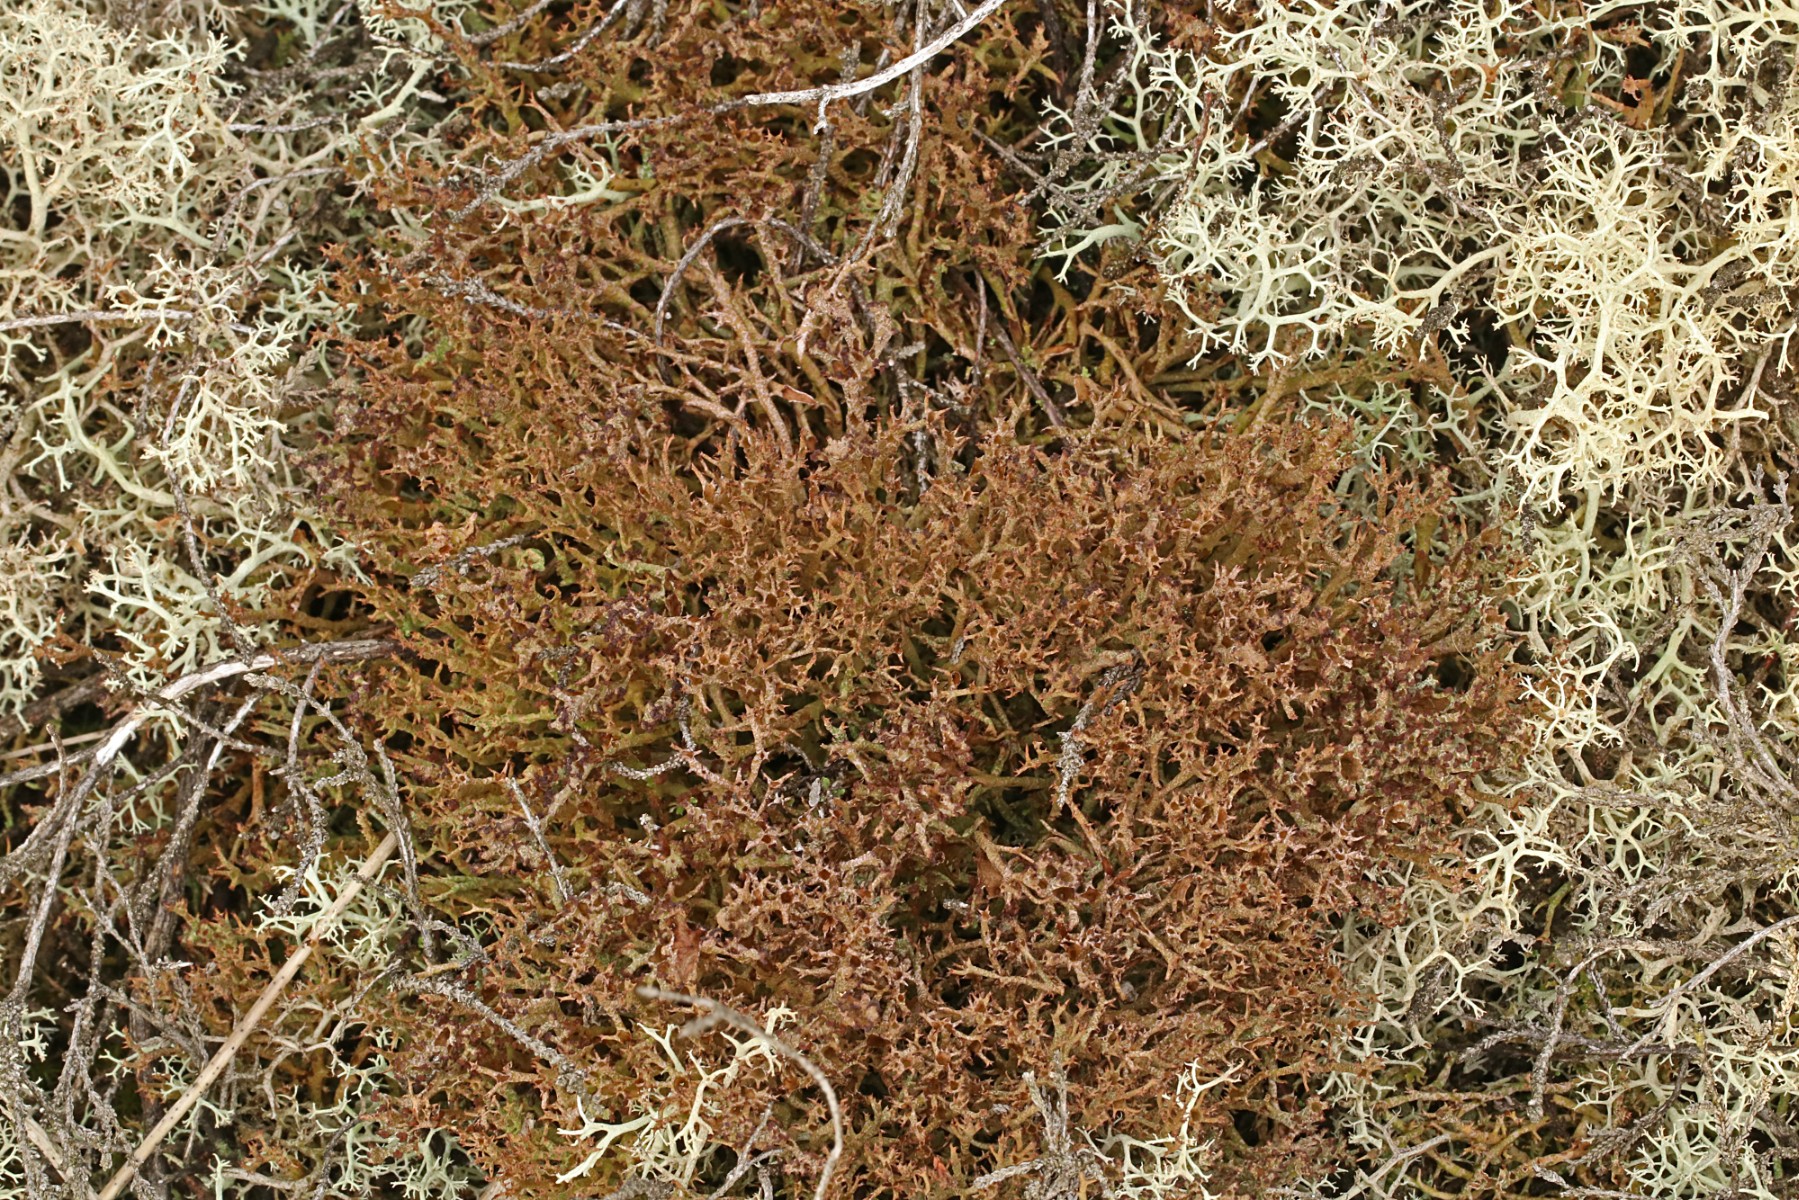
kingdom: Fungi
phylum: Ascomycota
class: Lecanoromycetes
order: Lecanorales
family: Cladoniaceae
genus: Cladonia
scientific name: Cladonia crispata
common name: takket bægerlav
